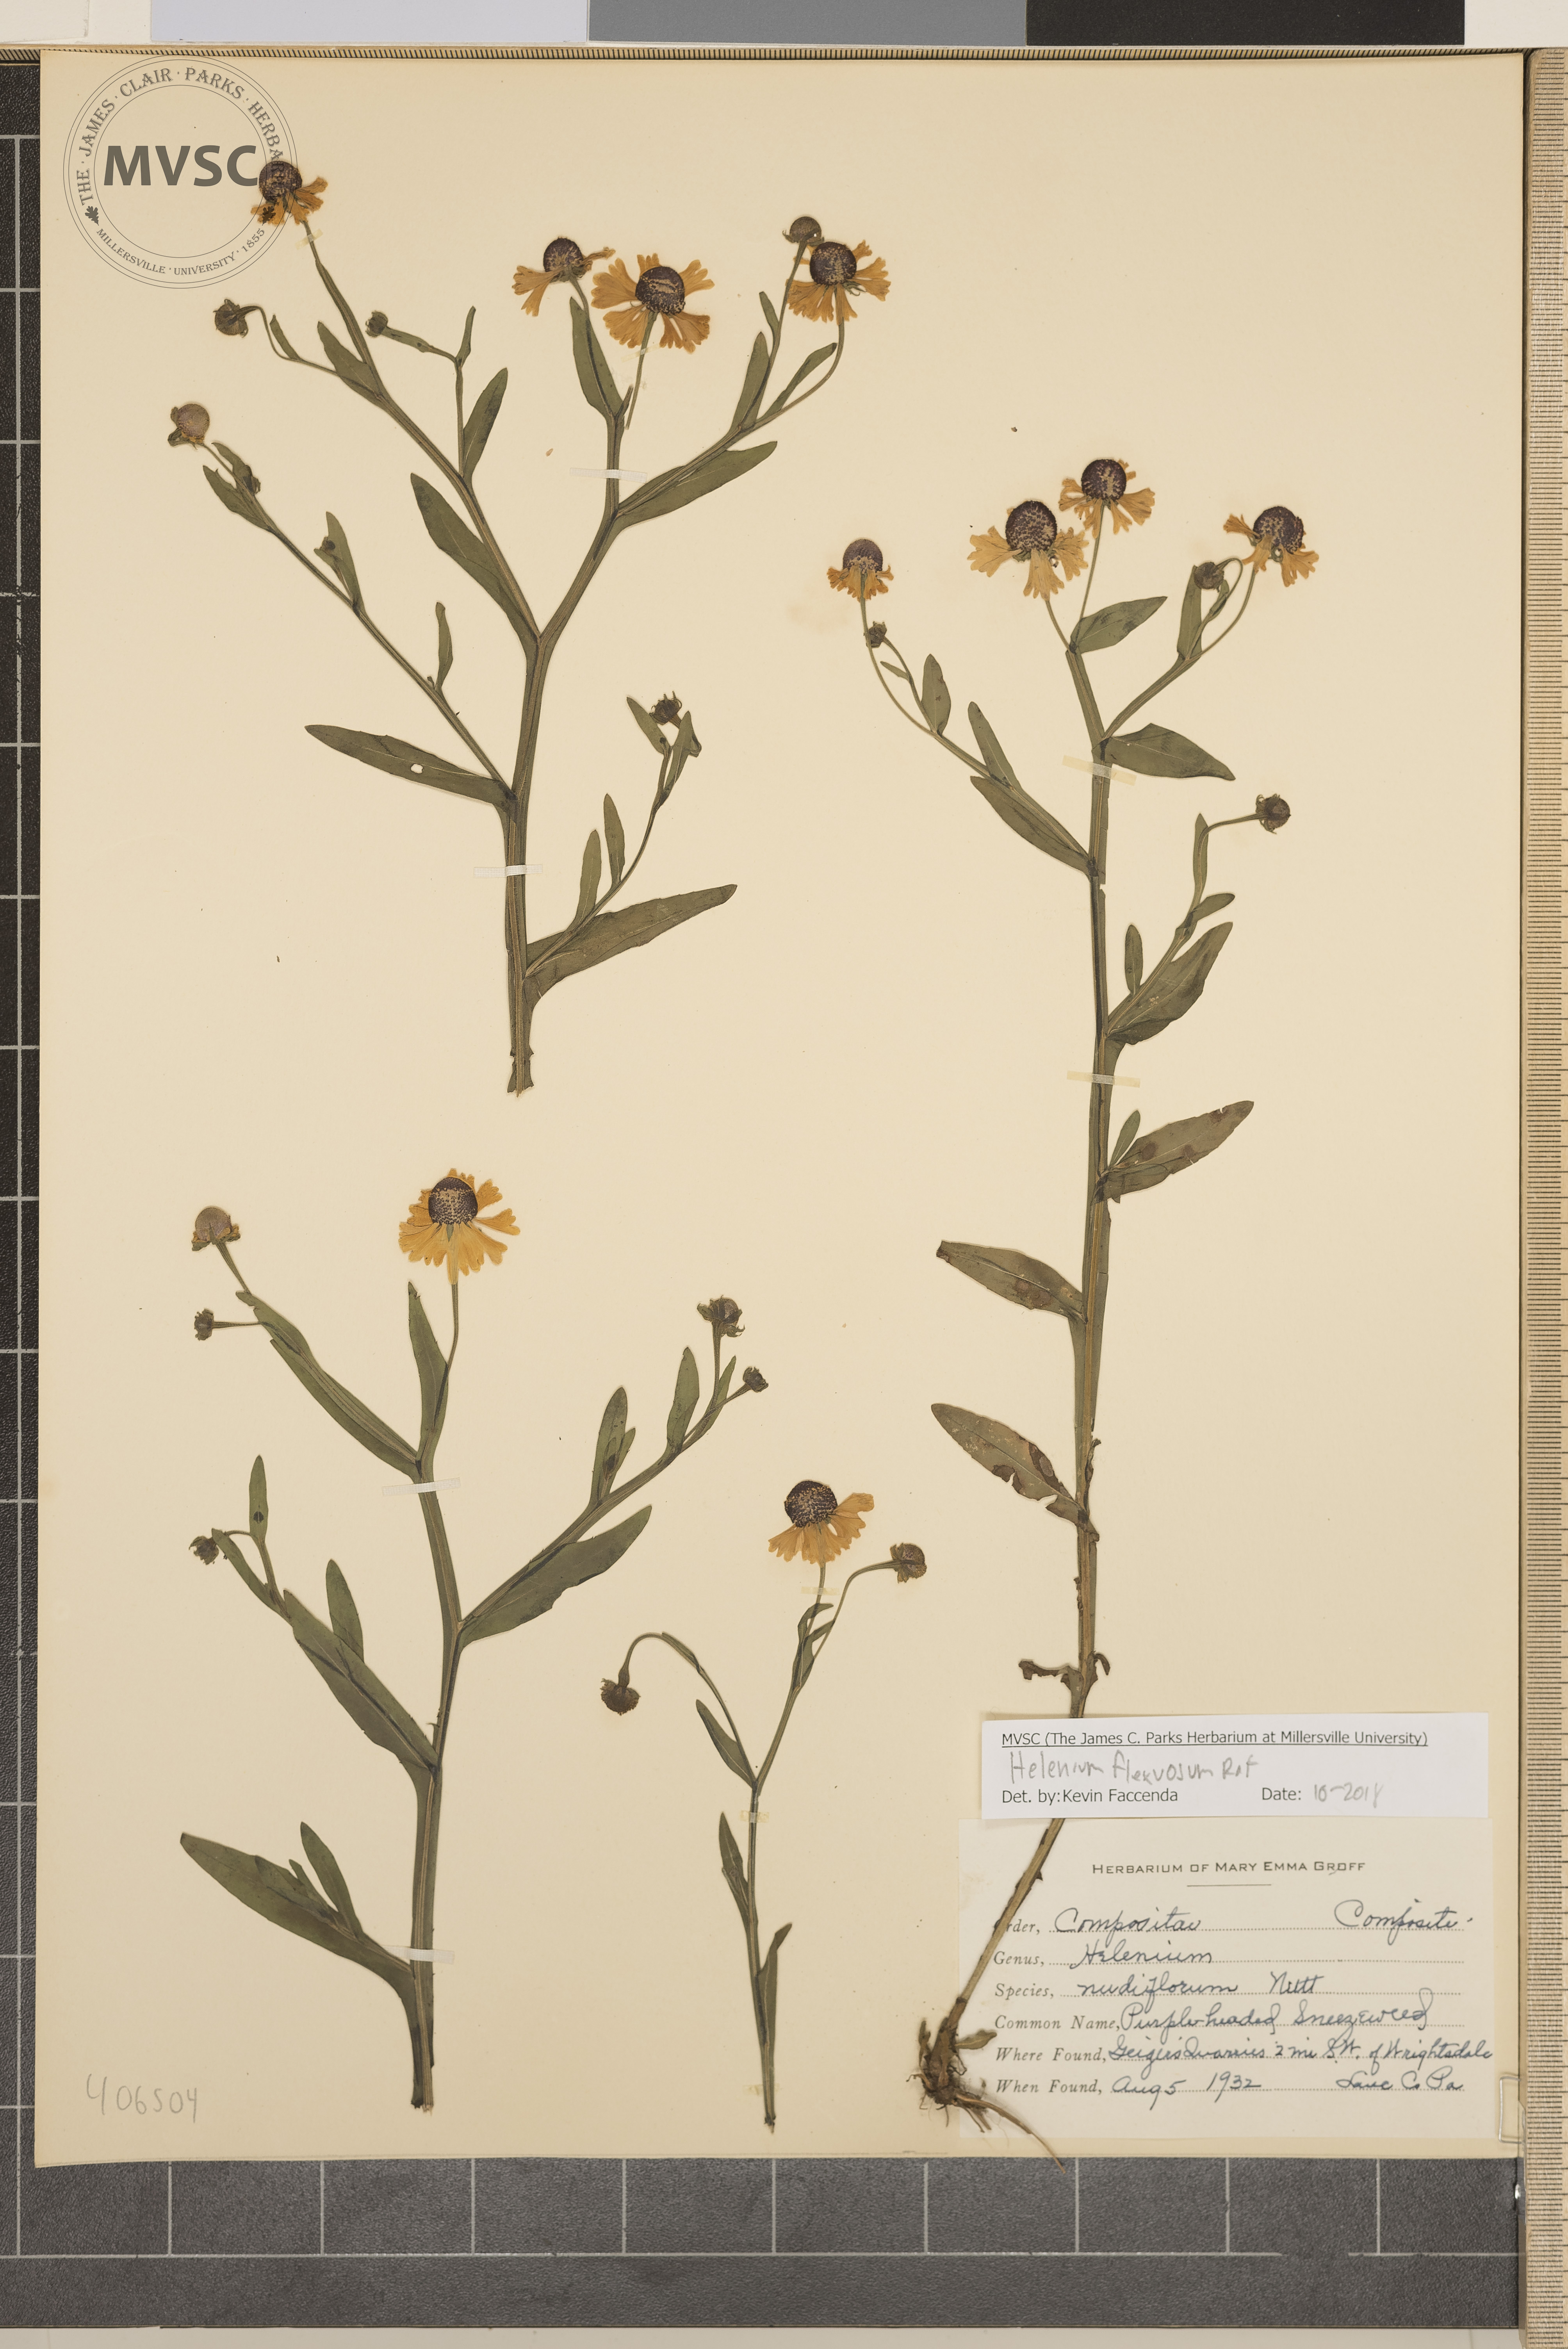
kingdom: Plantae
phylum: Tracheophyta
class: Magnoliopsida
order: Asterales
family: Asteraceae
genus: Helenium
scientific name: Helenium flexuosum
